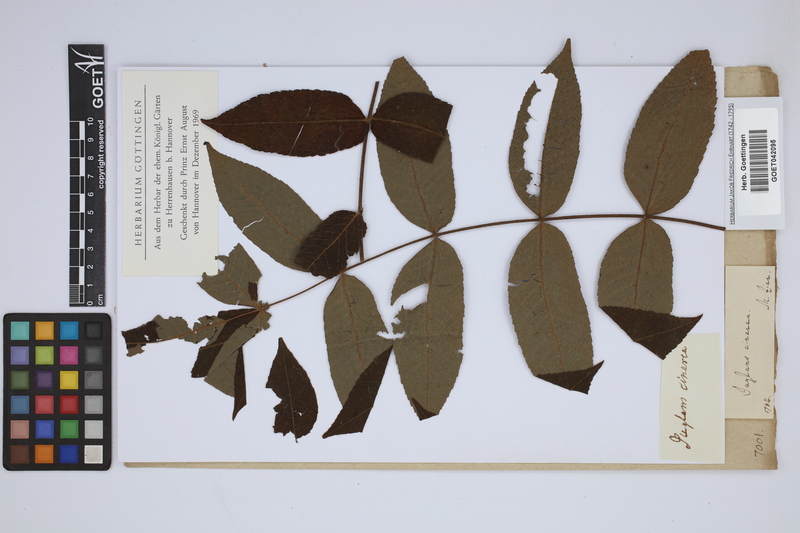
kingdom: Plantae
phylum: Tracheophyta
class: Magnoliopsida
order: Fagales
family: Juglandaceae
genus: Juglans
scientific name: Juglans cinerea
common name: Butternut
